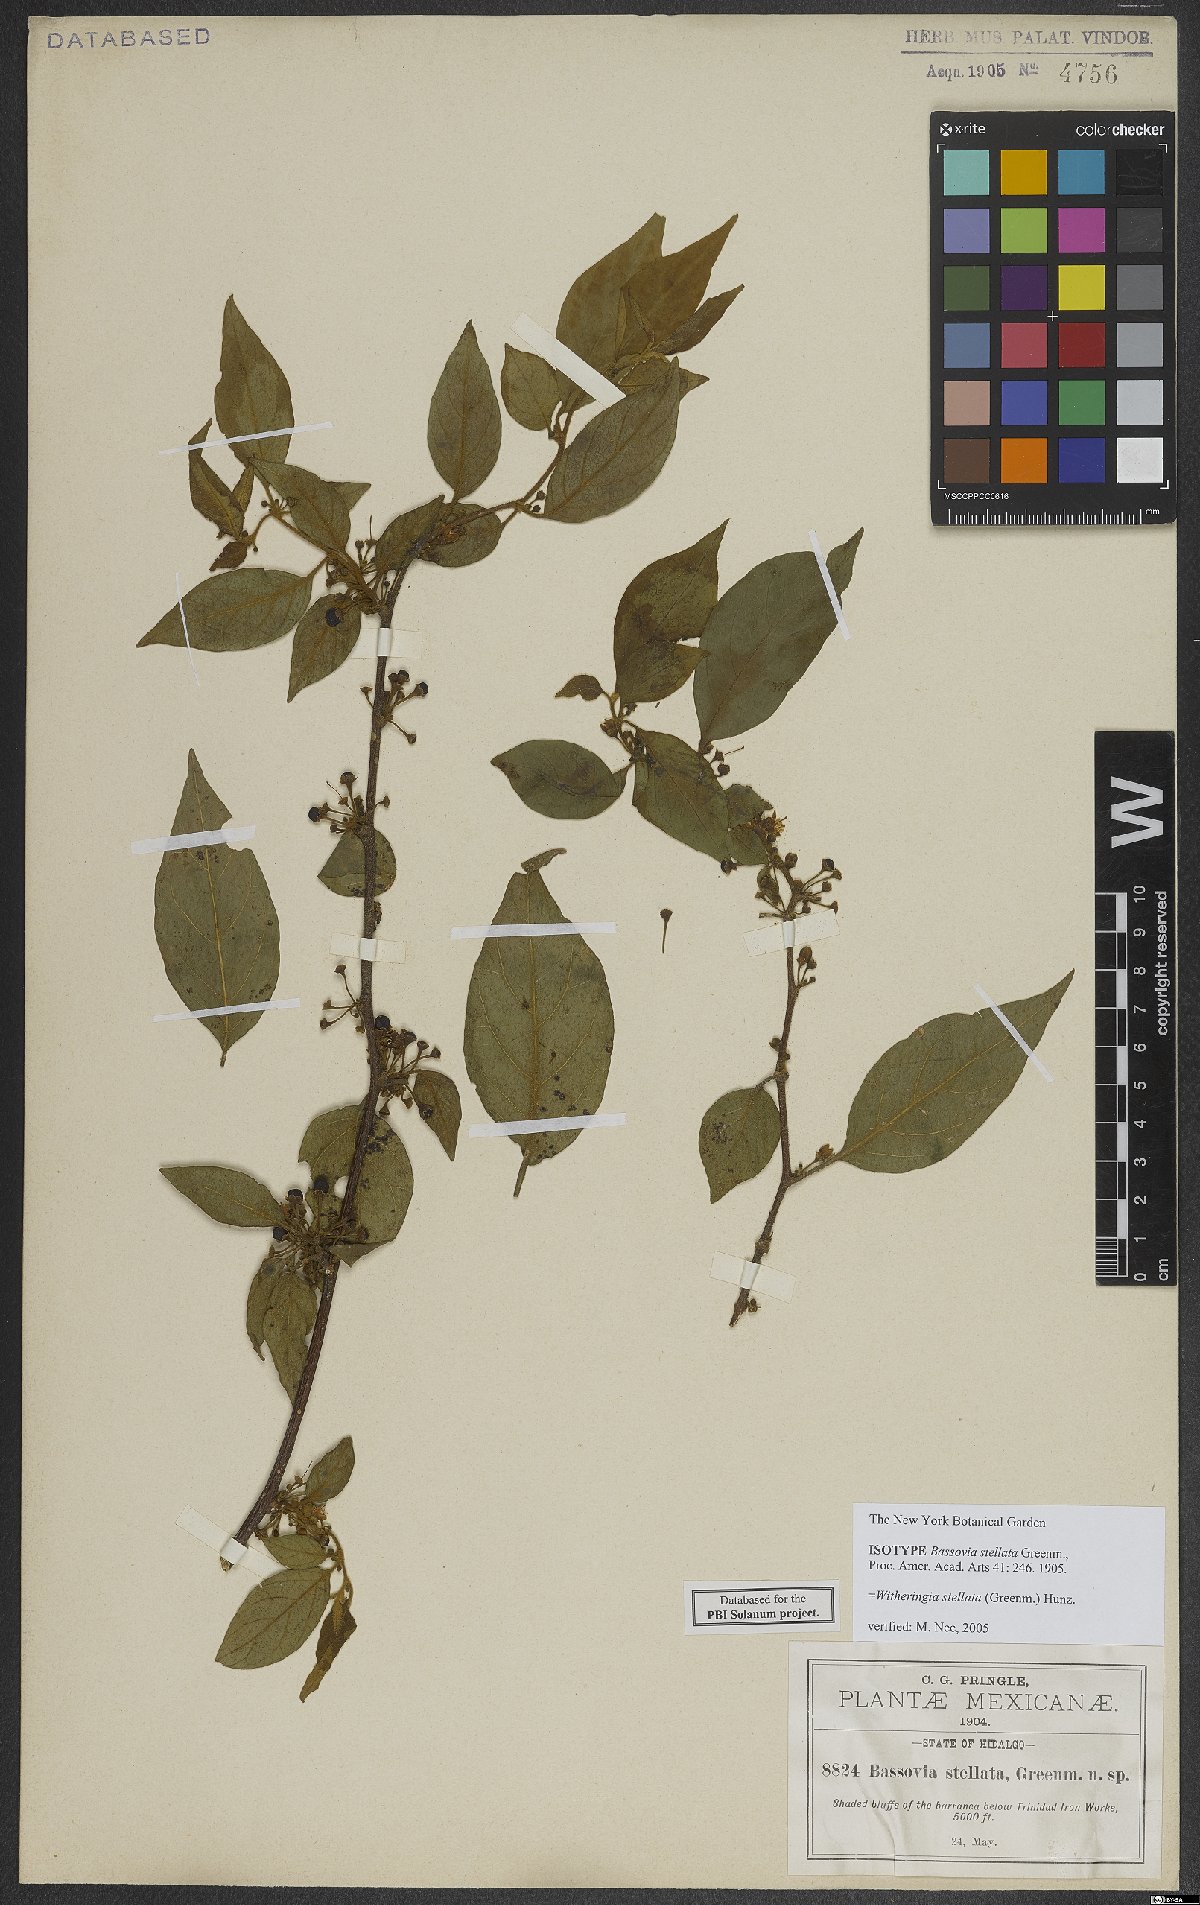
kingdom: Plantae
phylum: Tracheophyta
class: Magnoliopsida
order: Solanales
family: Solanaceae
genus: Witheringia
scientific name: Witheringia stellata
